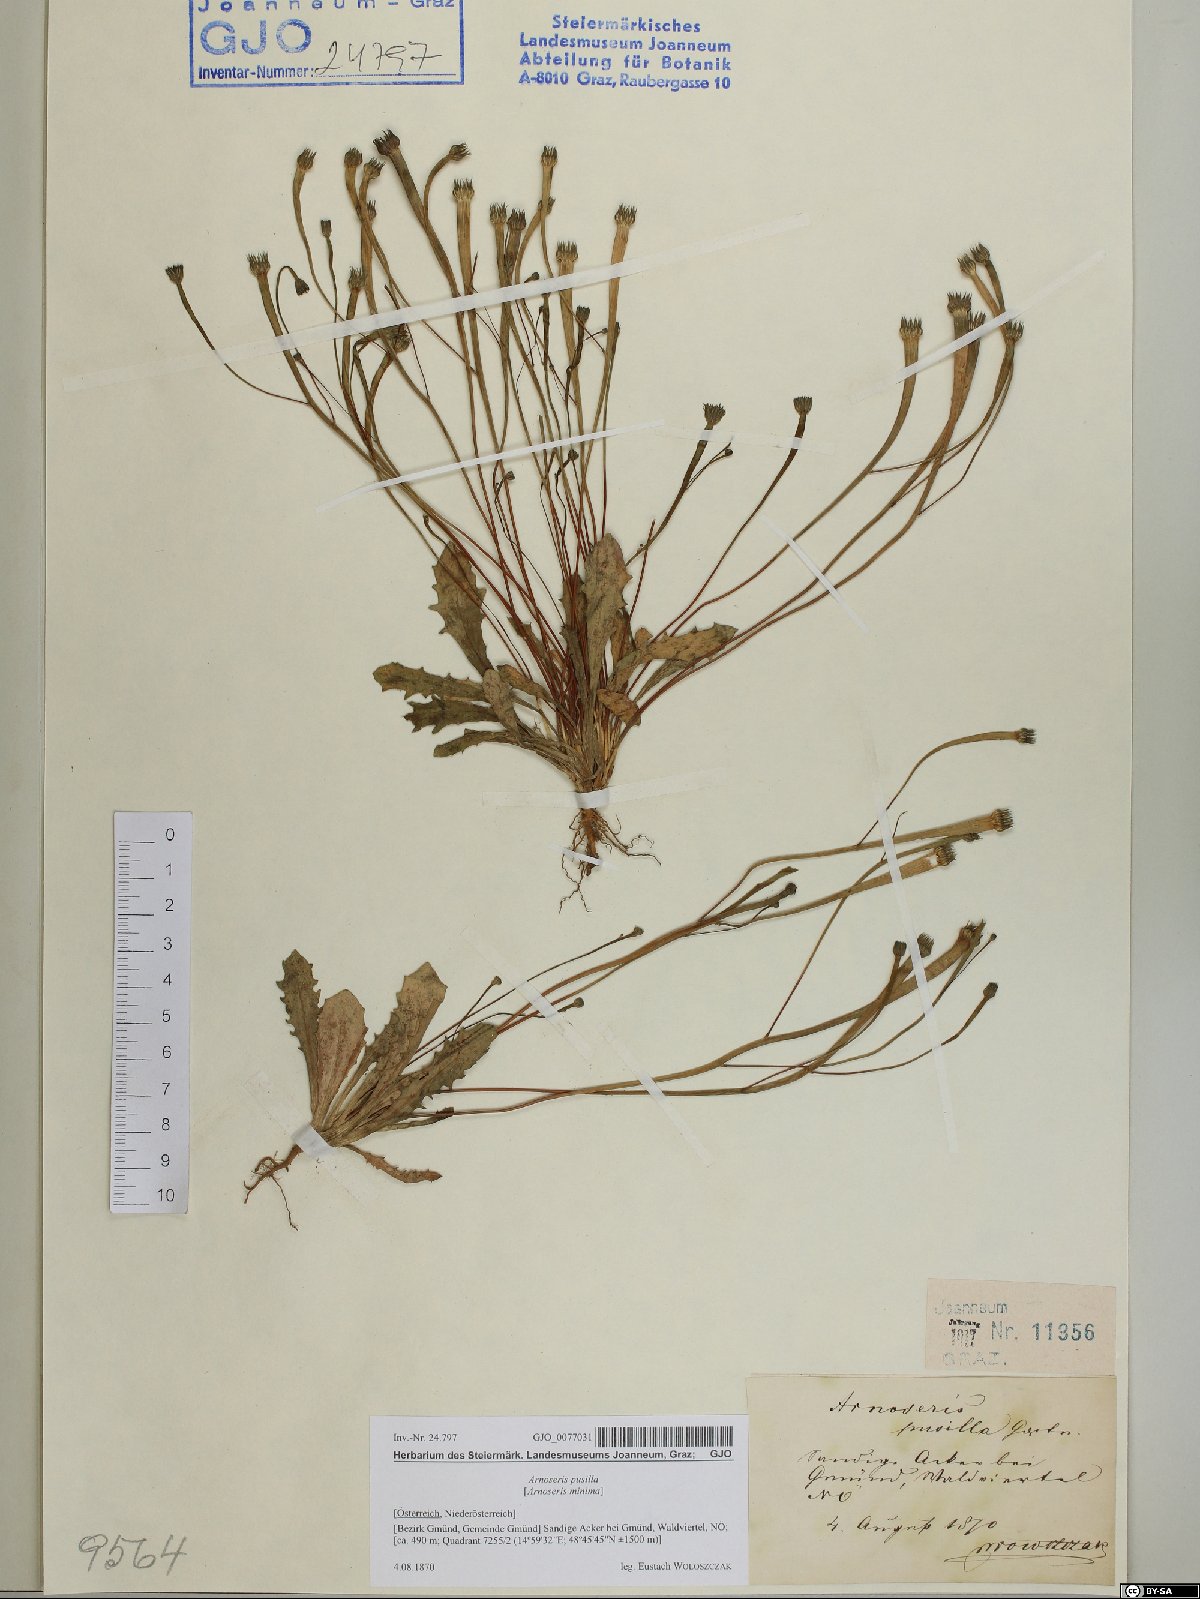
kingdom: Plantae
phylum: Tracheophyta
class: Magnoliopsida
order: Asterales
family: Asteraceae
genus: Arnoseris
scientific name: Arnoseris minima
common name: Lamb's succory
